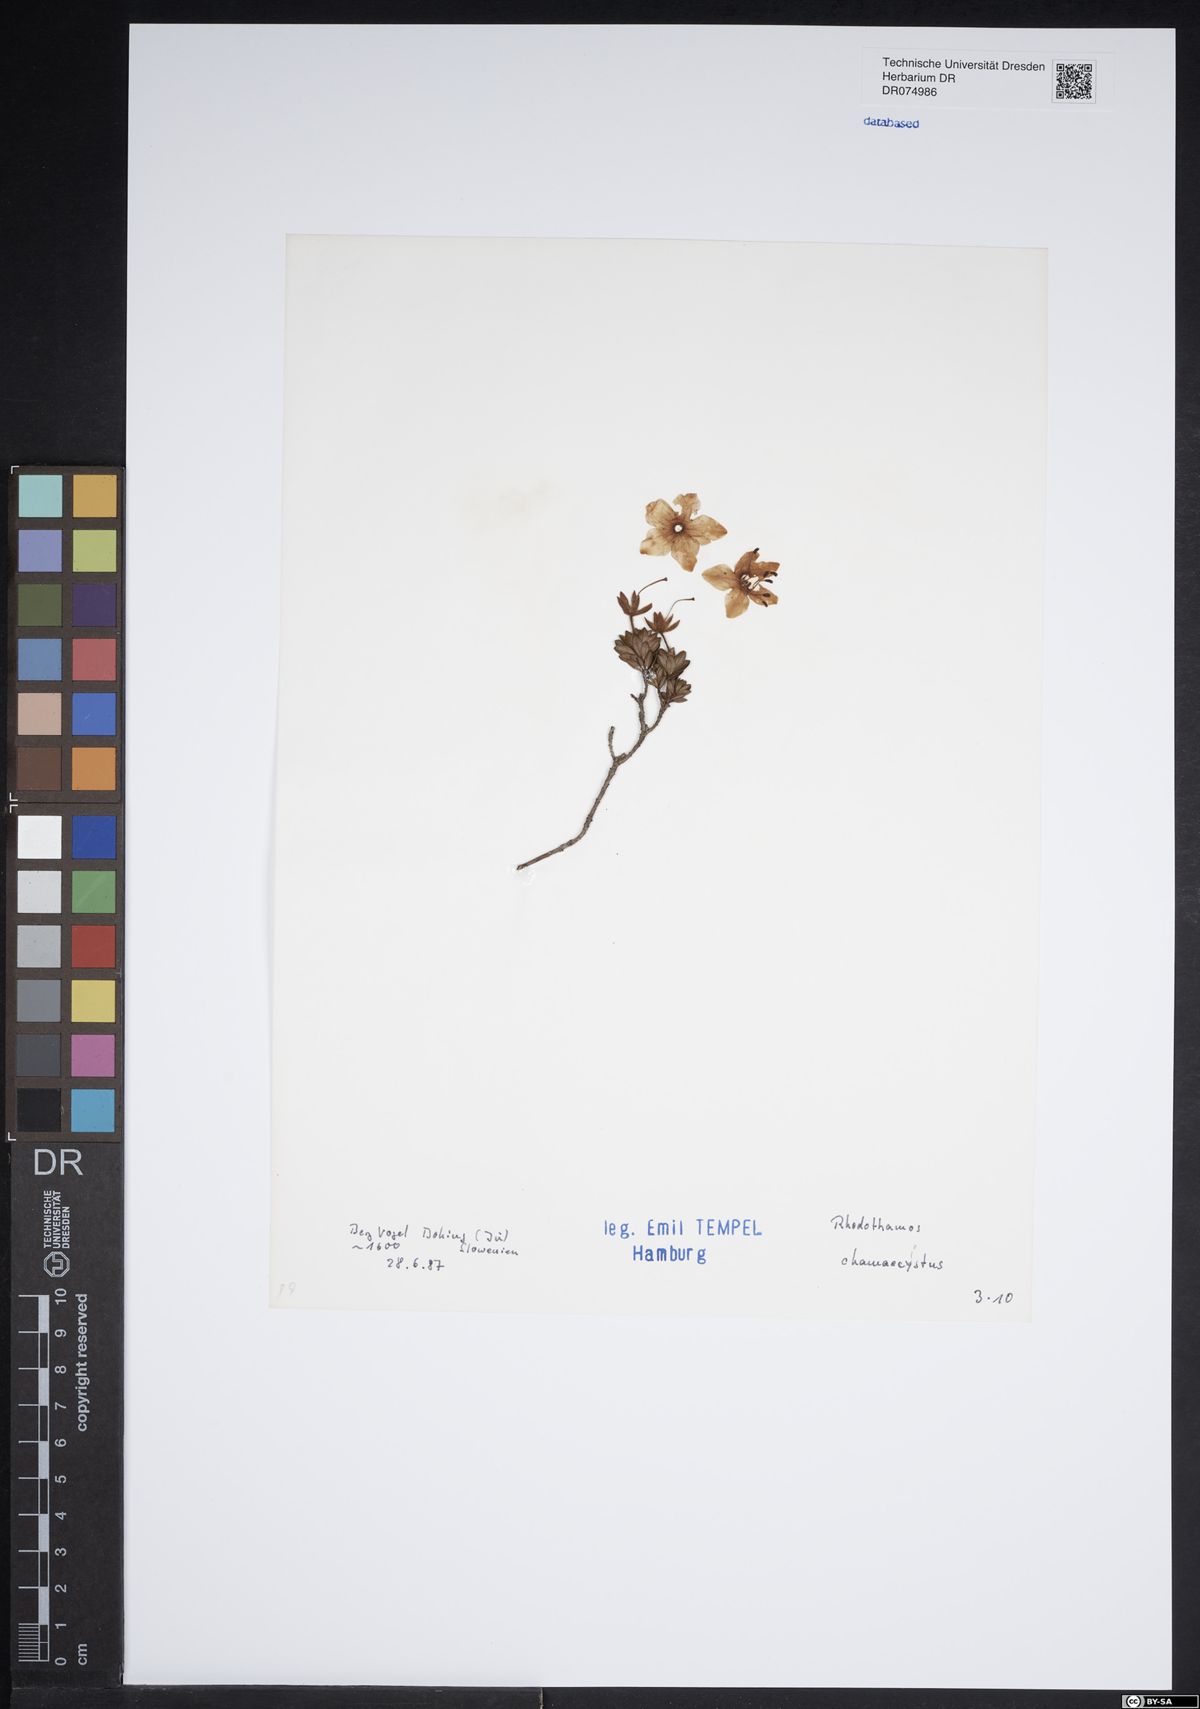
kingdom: Plantae
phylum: Tracheophyta
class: Magnoliopsida
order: Ericales
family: Ericaceae
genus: Rhodothamnus
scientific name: Rhodothamnus chamaecistus
